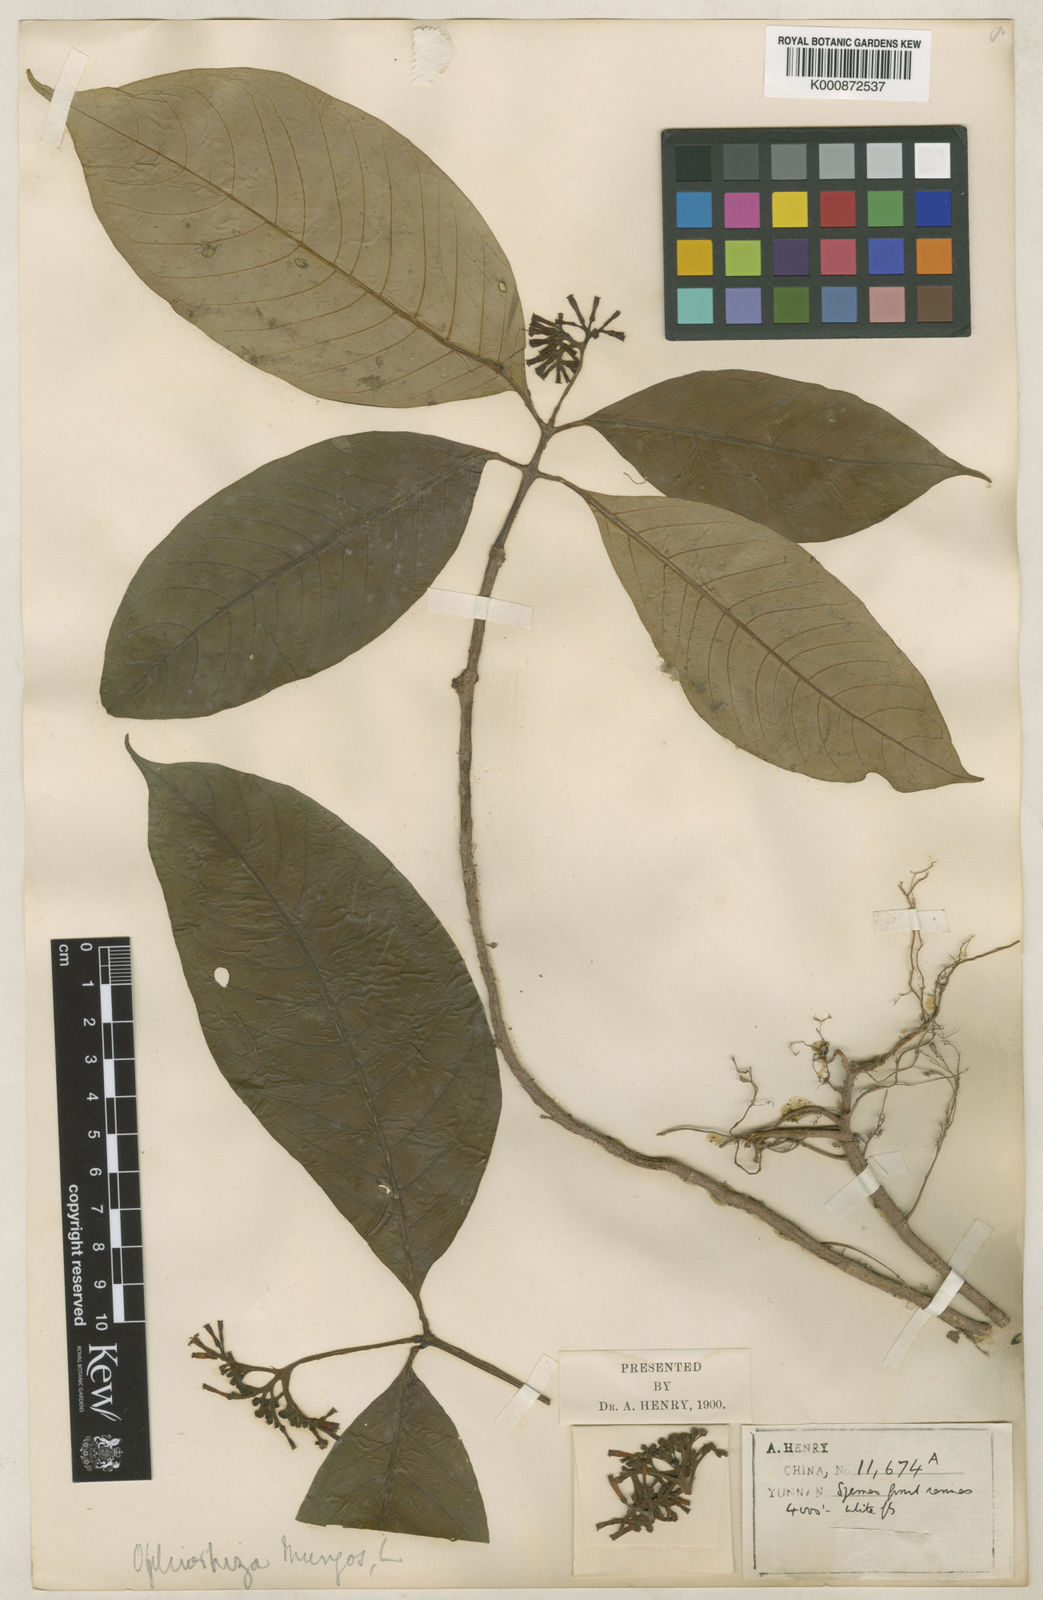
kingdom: Plantae
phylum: Tracheophyta
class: Magnoliopsida
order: Gentianales
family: Rubiaceae
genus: Ophiorrhiza
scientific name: Ophiorrhiza mungos
